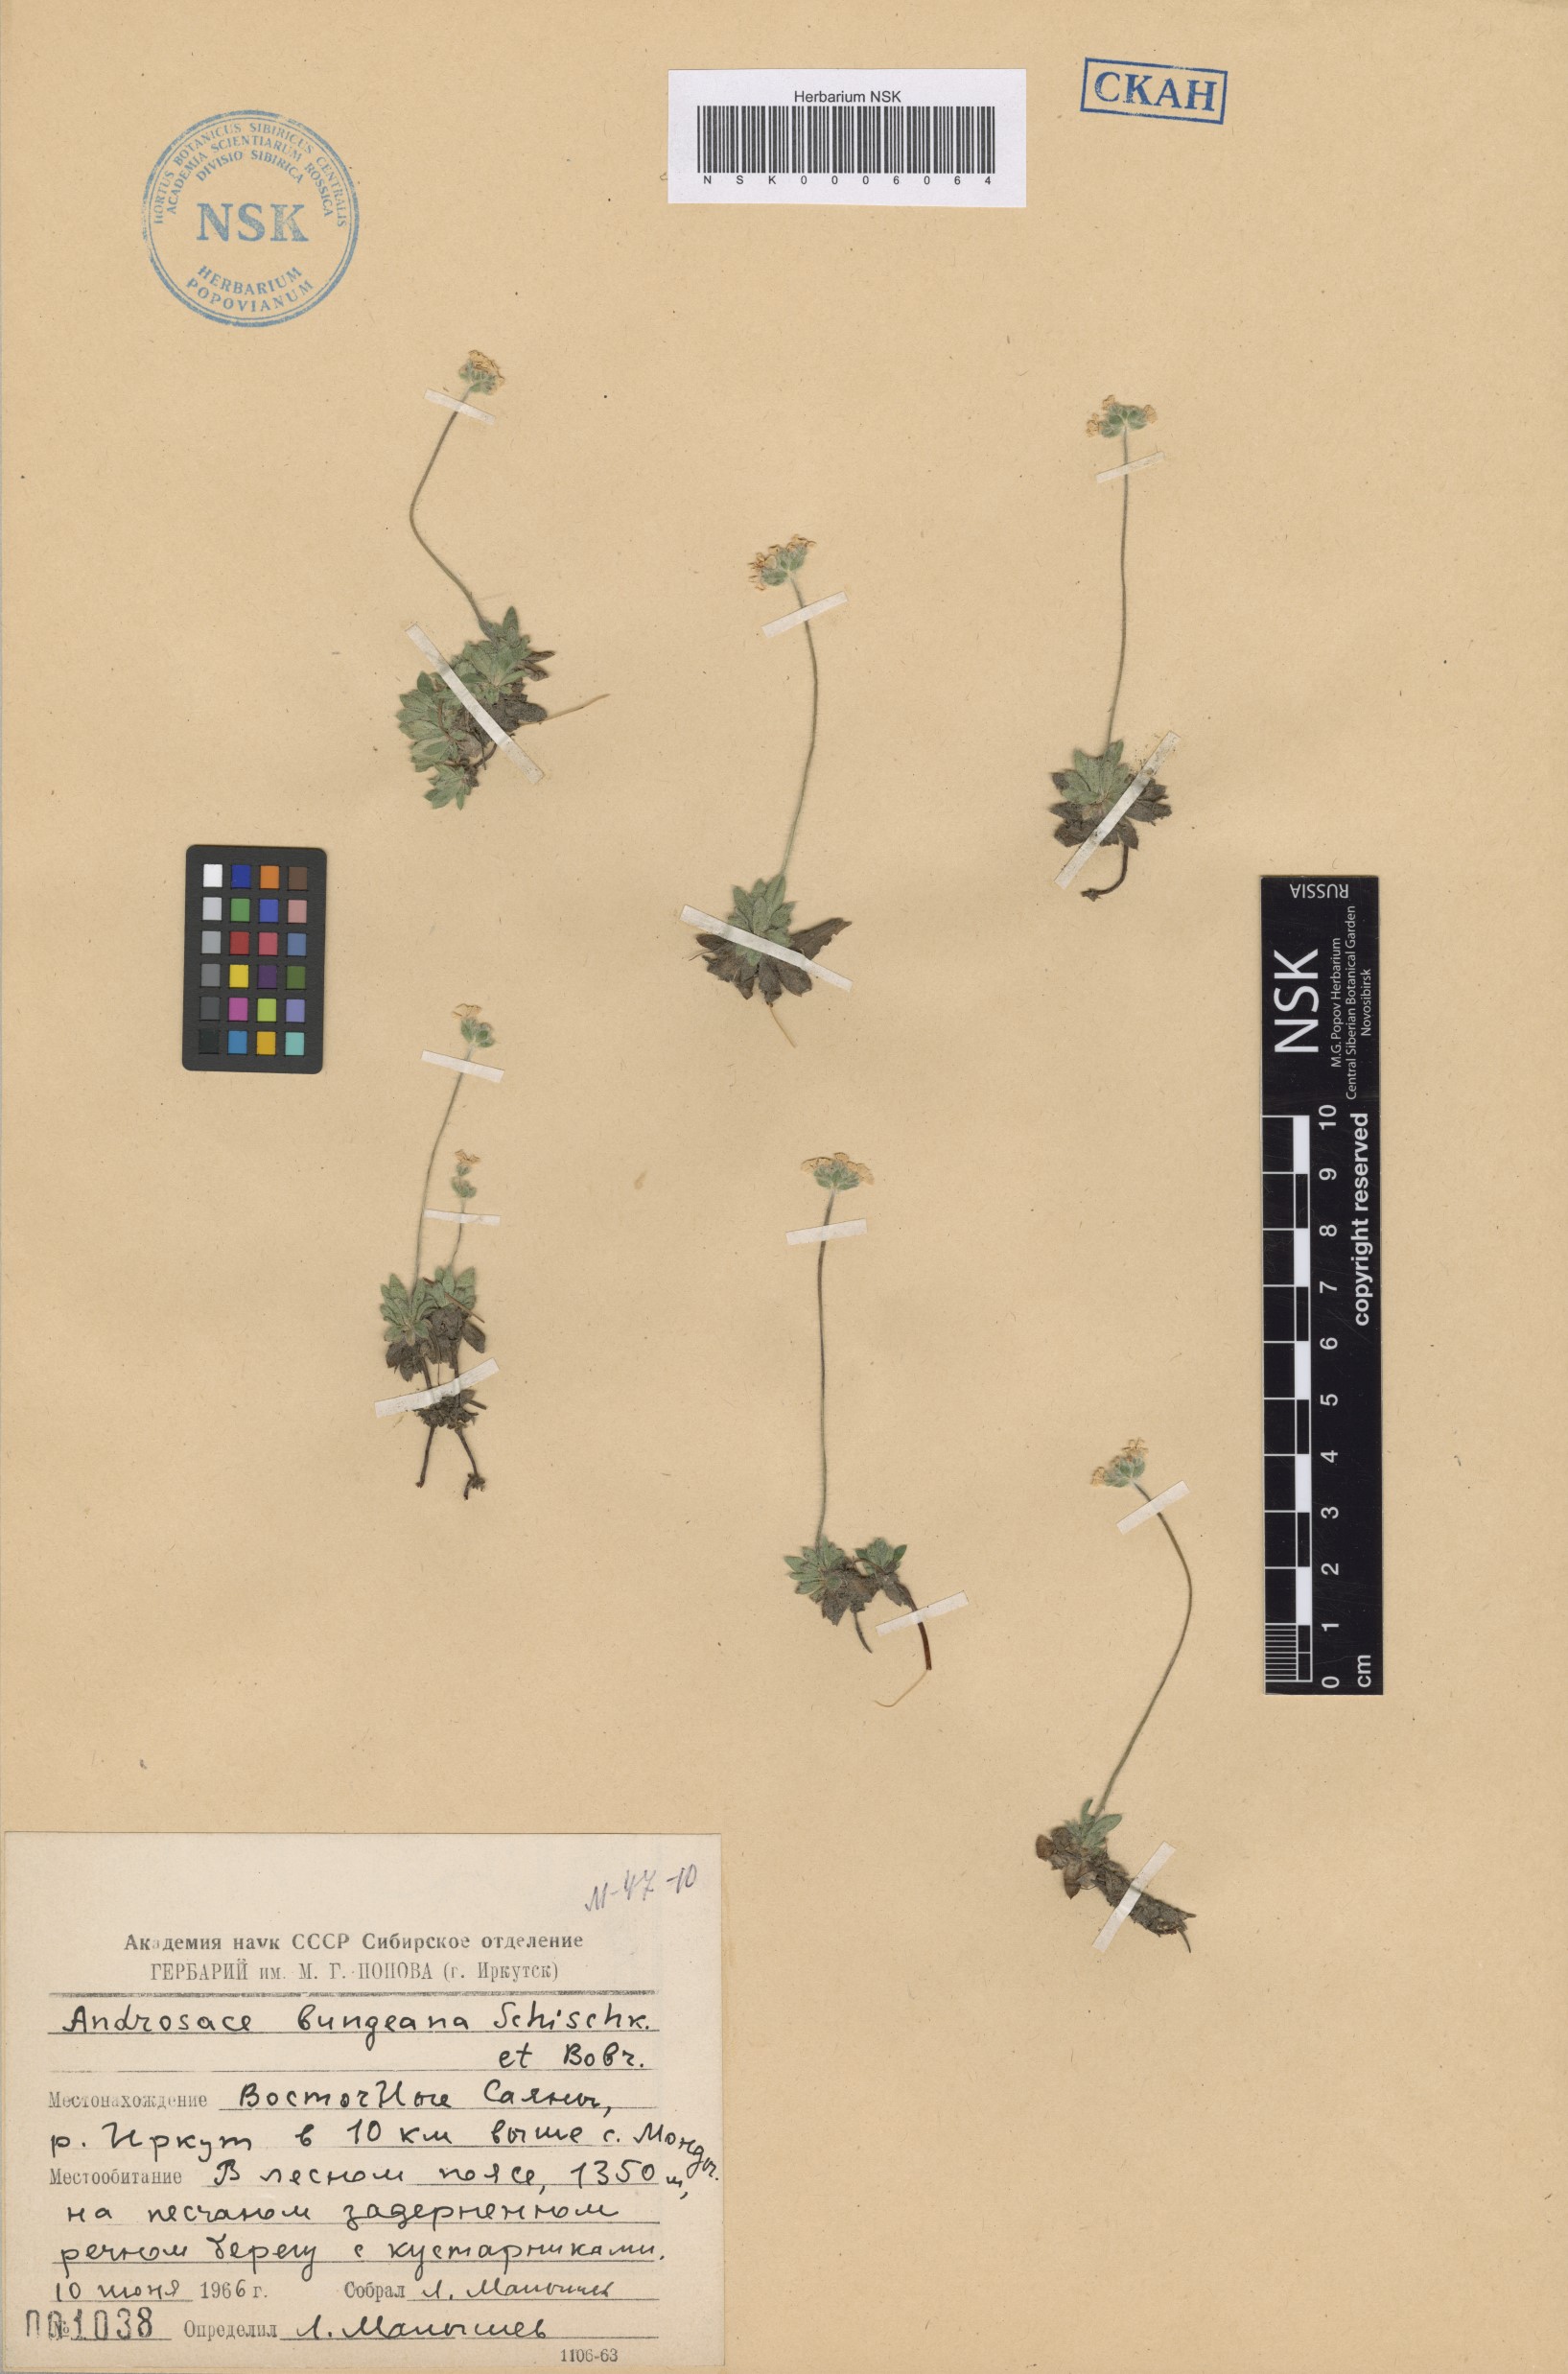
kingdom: Plantae
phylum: Tracheophyta
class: Magnoliopsida
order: Ericales
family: Primulaceae
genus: Androsace
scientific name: Androsace bungeana
